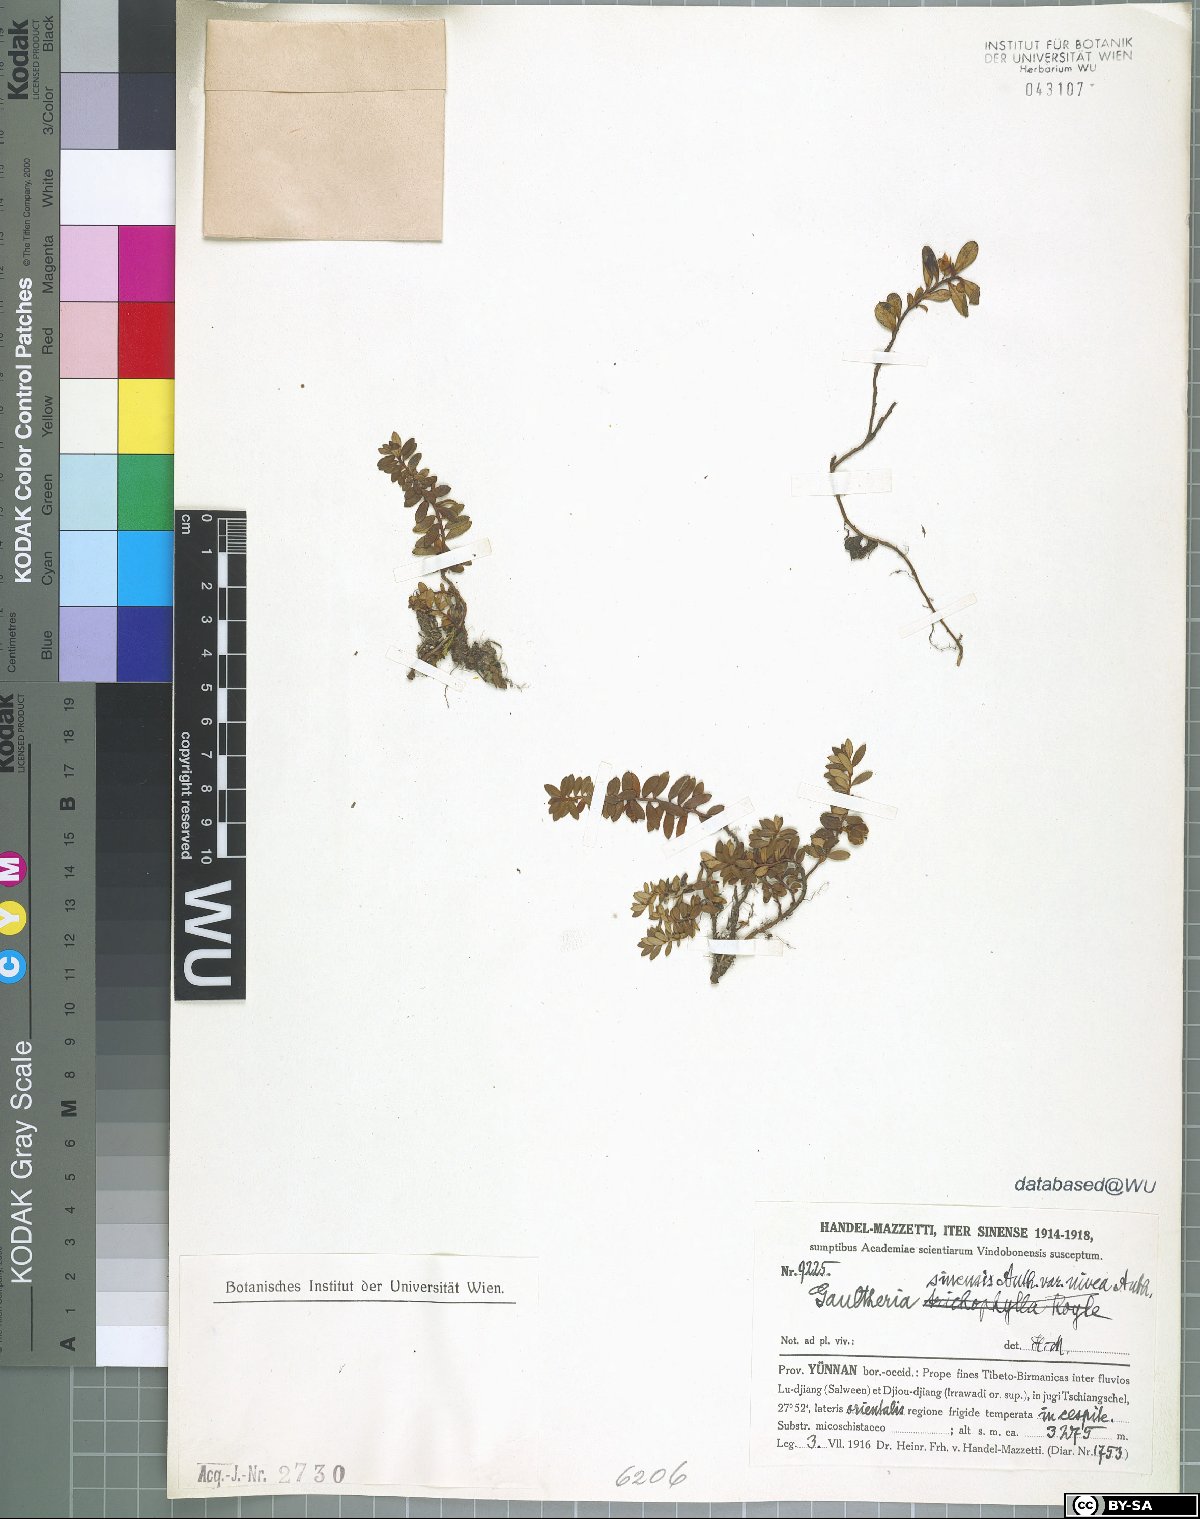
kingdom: Plantae
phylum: Tracheophyta
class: Magnoliopsida
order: Ericales
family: Ericaceae
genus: Gaultheria
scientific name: Gaultheria nivea
